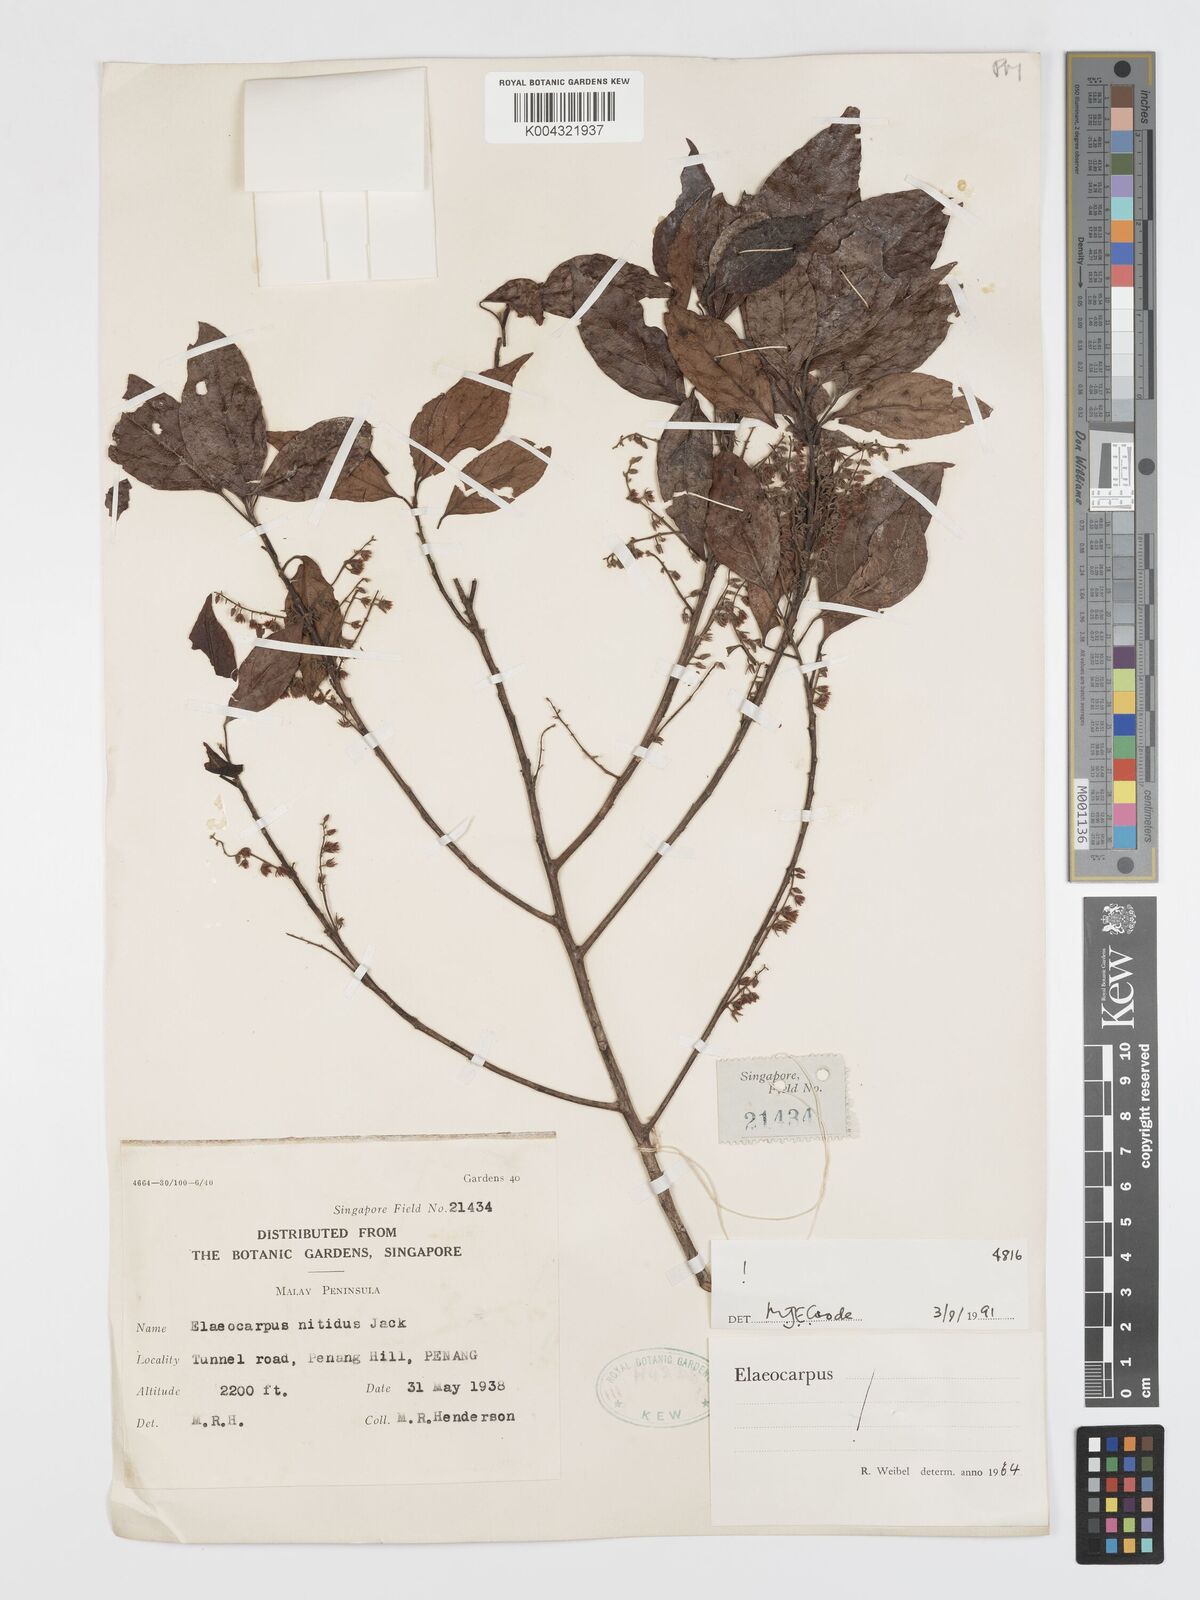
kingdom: Plantae
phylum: Tracheophyta
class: Magnoliopsida
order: Oxalidales
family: Elaeocarpaceae
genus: Elaeocarpus
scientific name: Elaeocarpus nitidus
